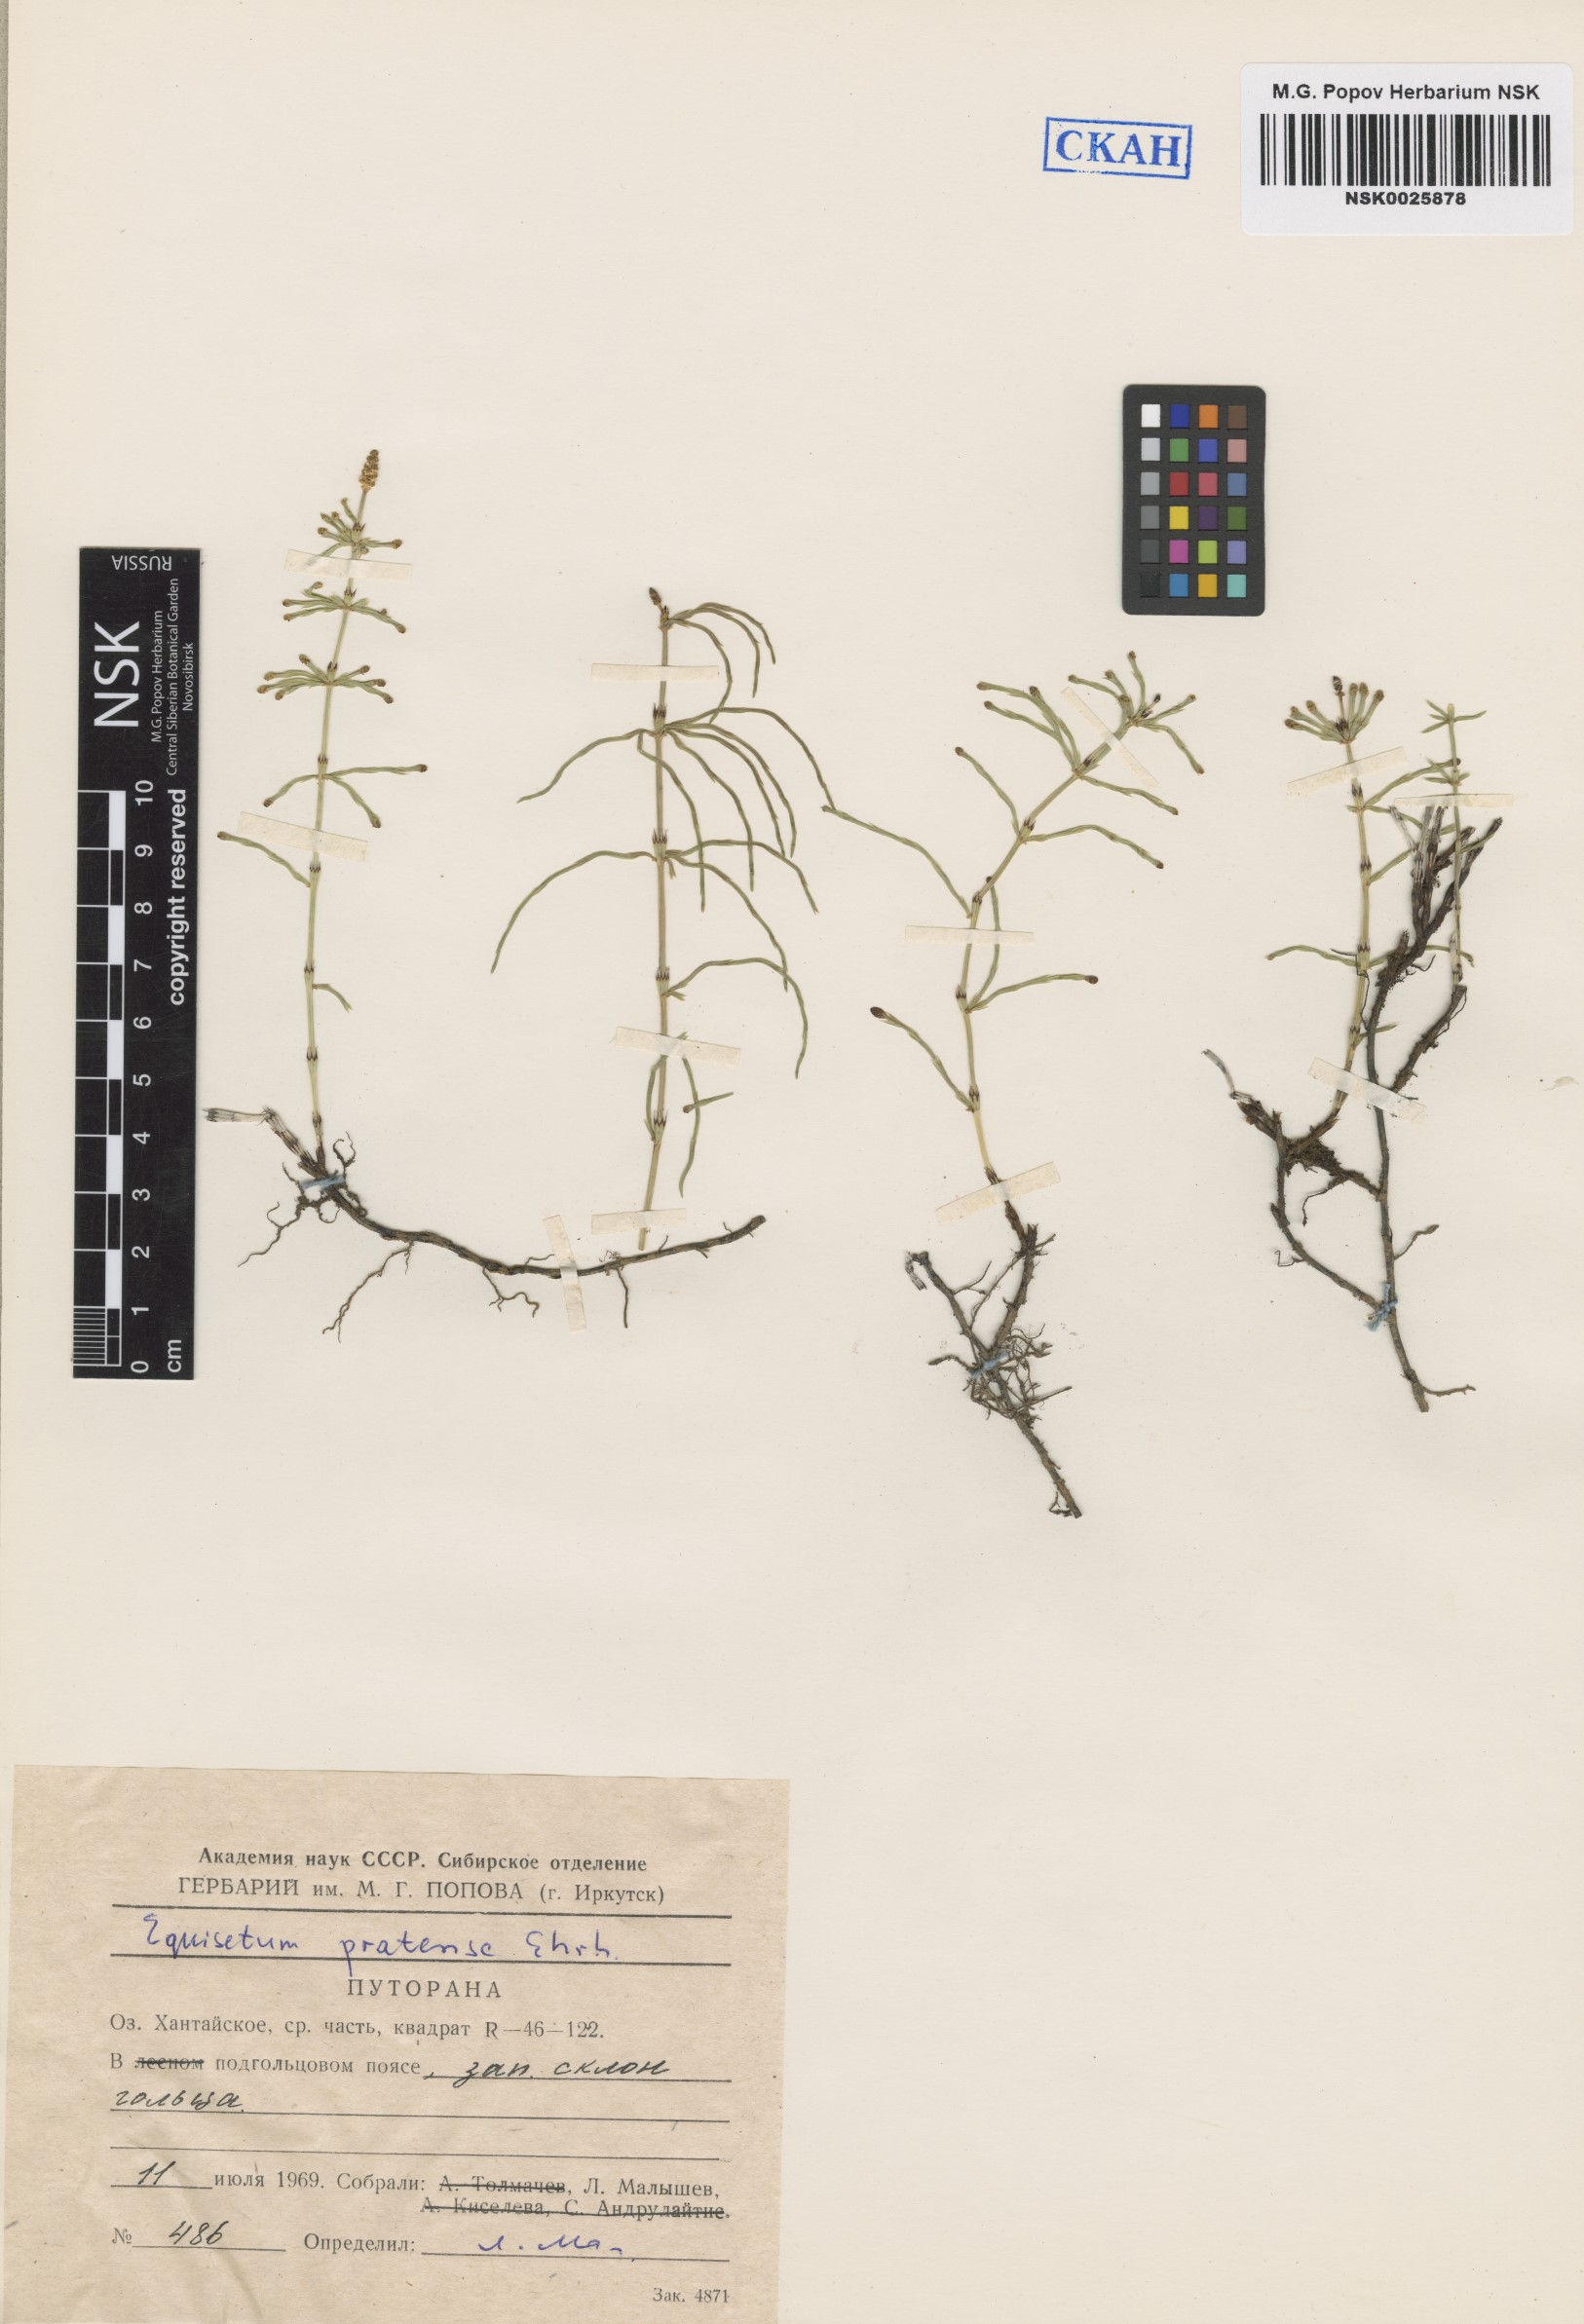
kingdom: Plantae
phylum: Tracheophyta
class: Polypodiopsida
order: Equisetales
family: Equisetaceae
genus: Equisetum
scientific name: Equisetum pratense
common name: Meadow horsetail
